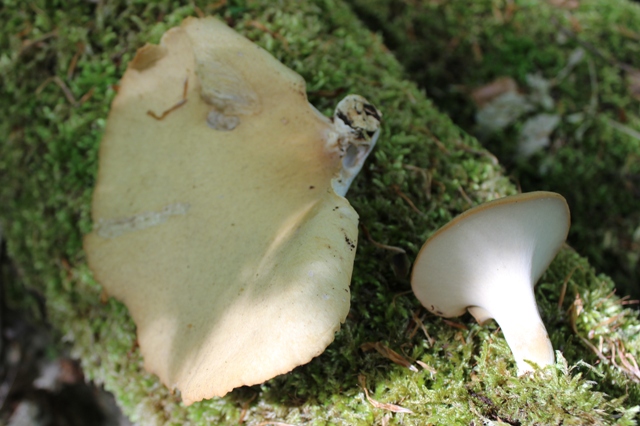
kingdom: Fungi
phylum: Basidiomycota
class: Agaricomycetes
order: Polyporales
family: Polyporaceae
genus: Cerioporus
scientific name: Cerioporus varius
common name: foranderlig stilkporesvamp
